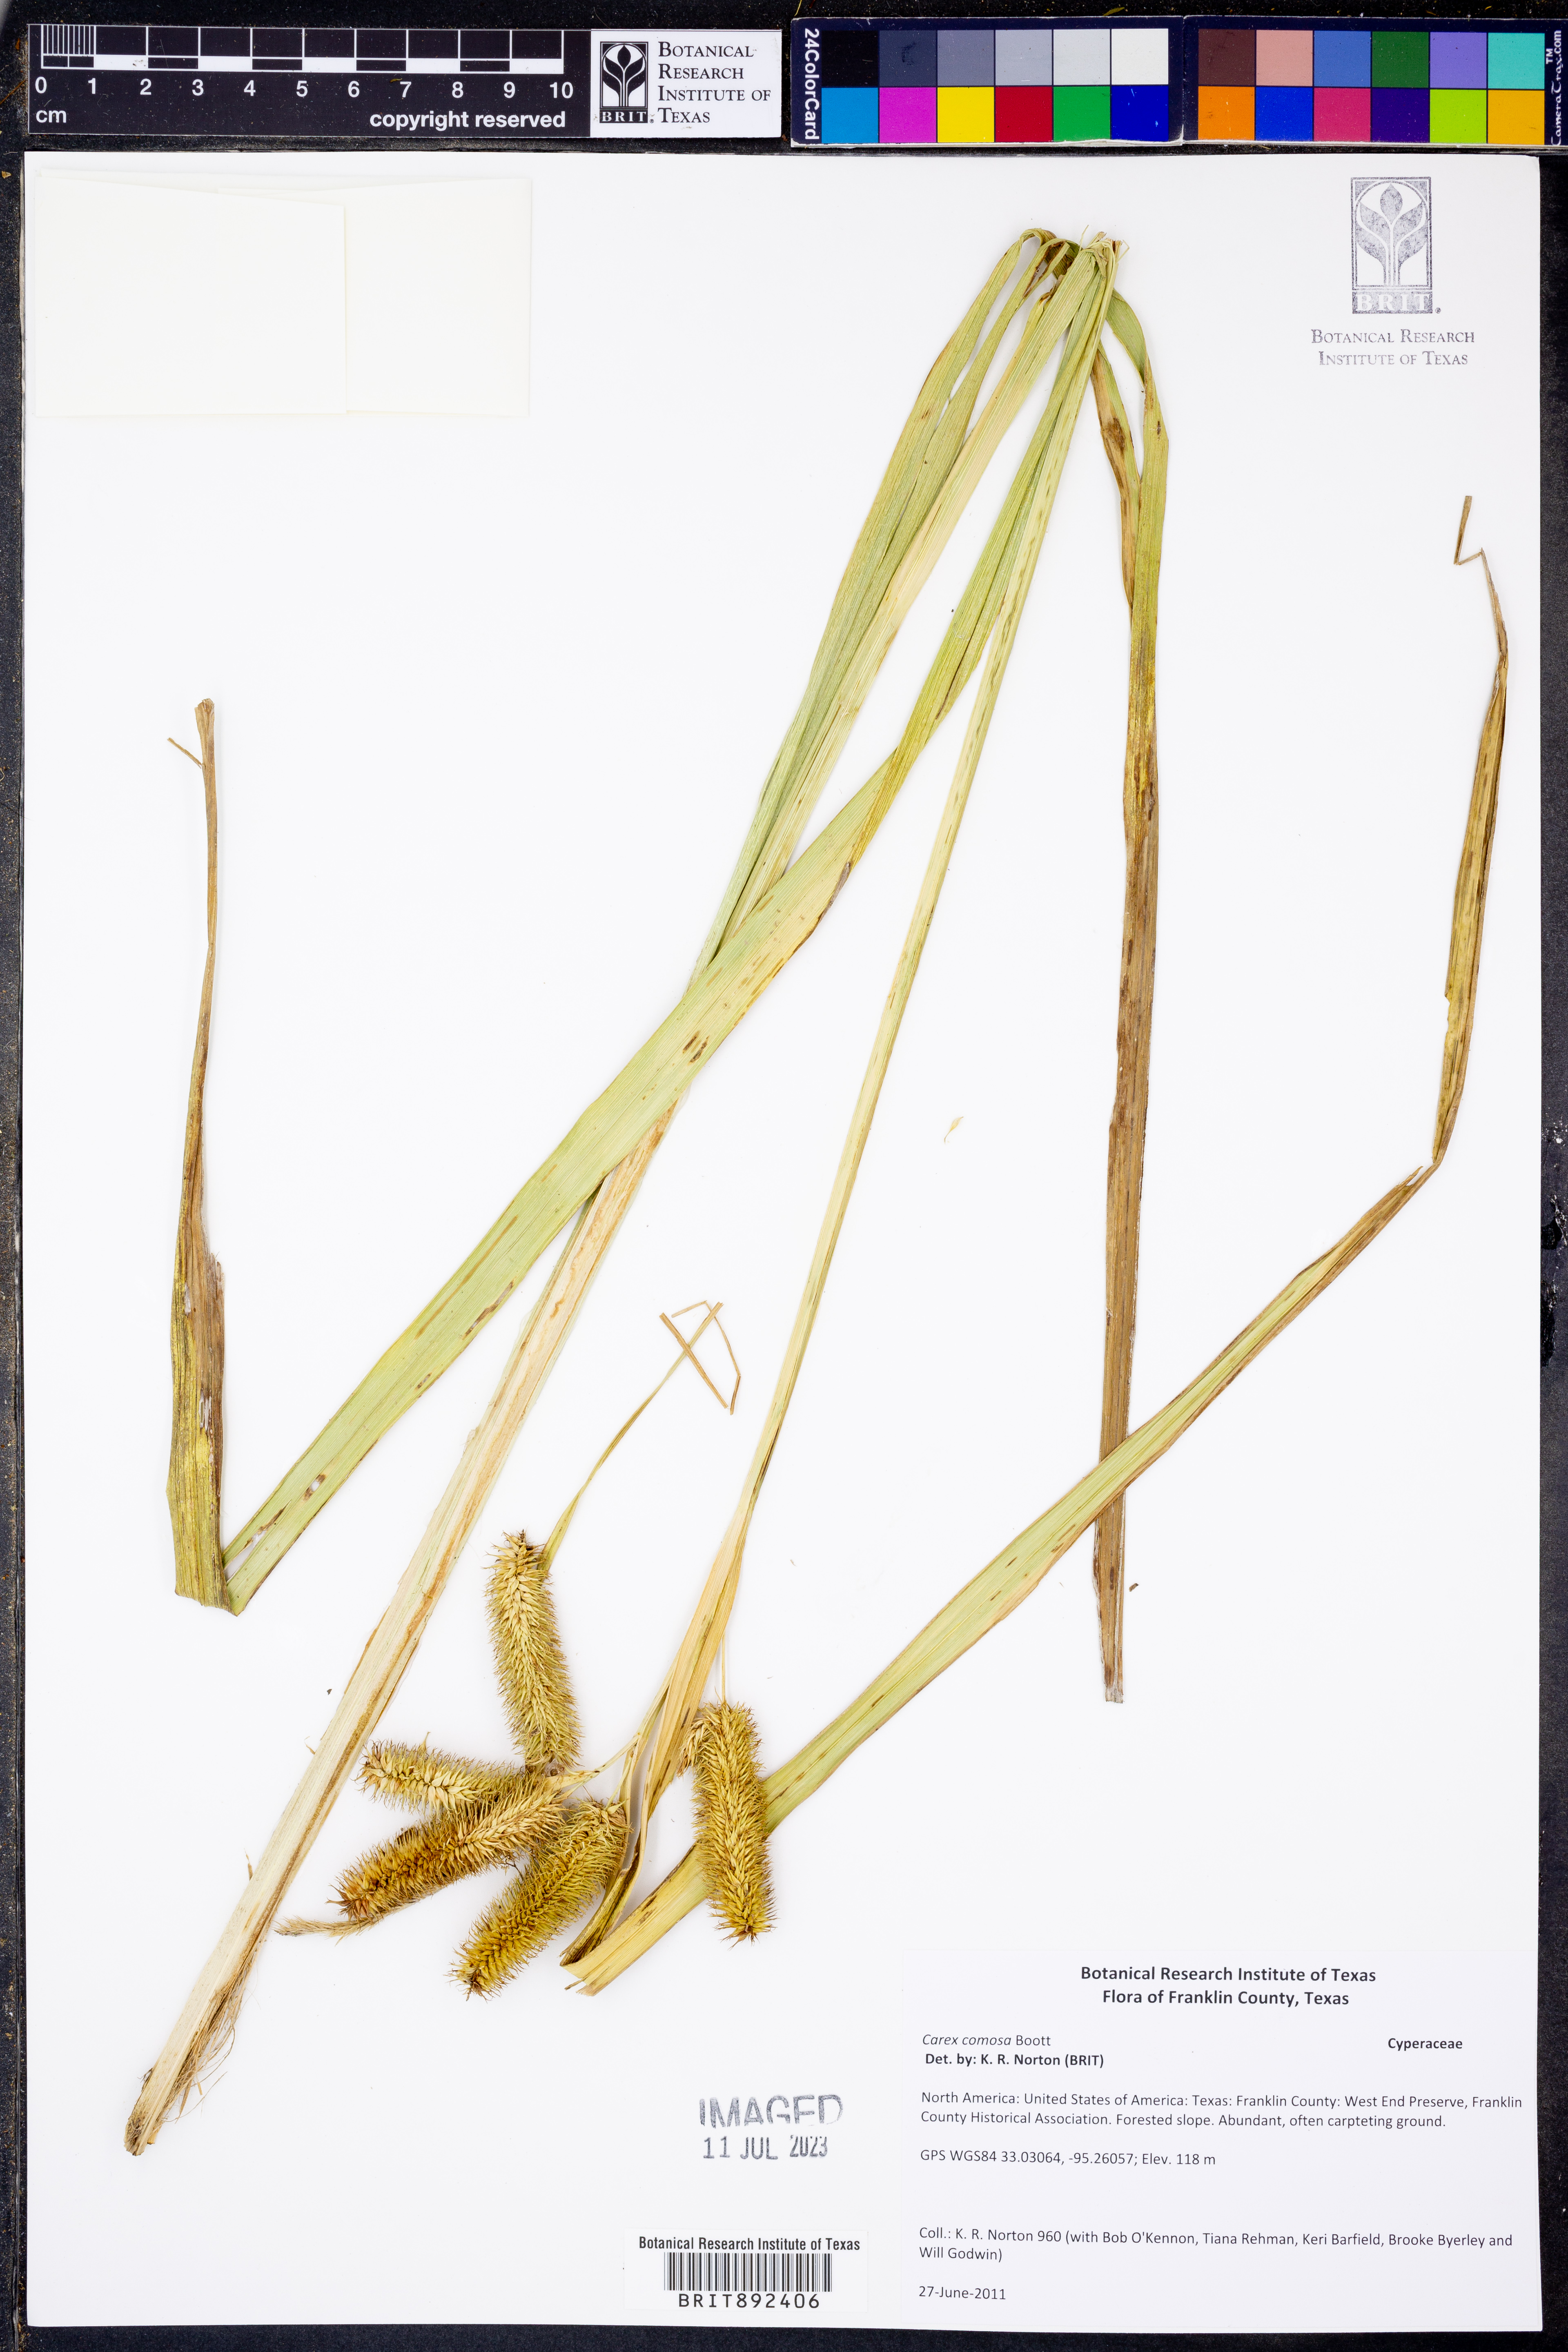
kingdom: Plantae
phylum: Tracheophyta
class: Liliopsida
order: Poales
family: Cyperaceae
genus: Carex
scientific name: Carex comosa
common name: Bristly sedge
